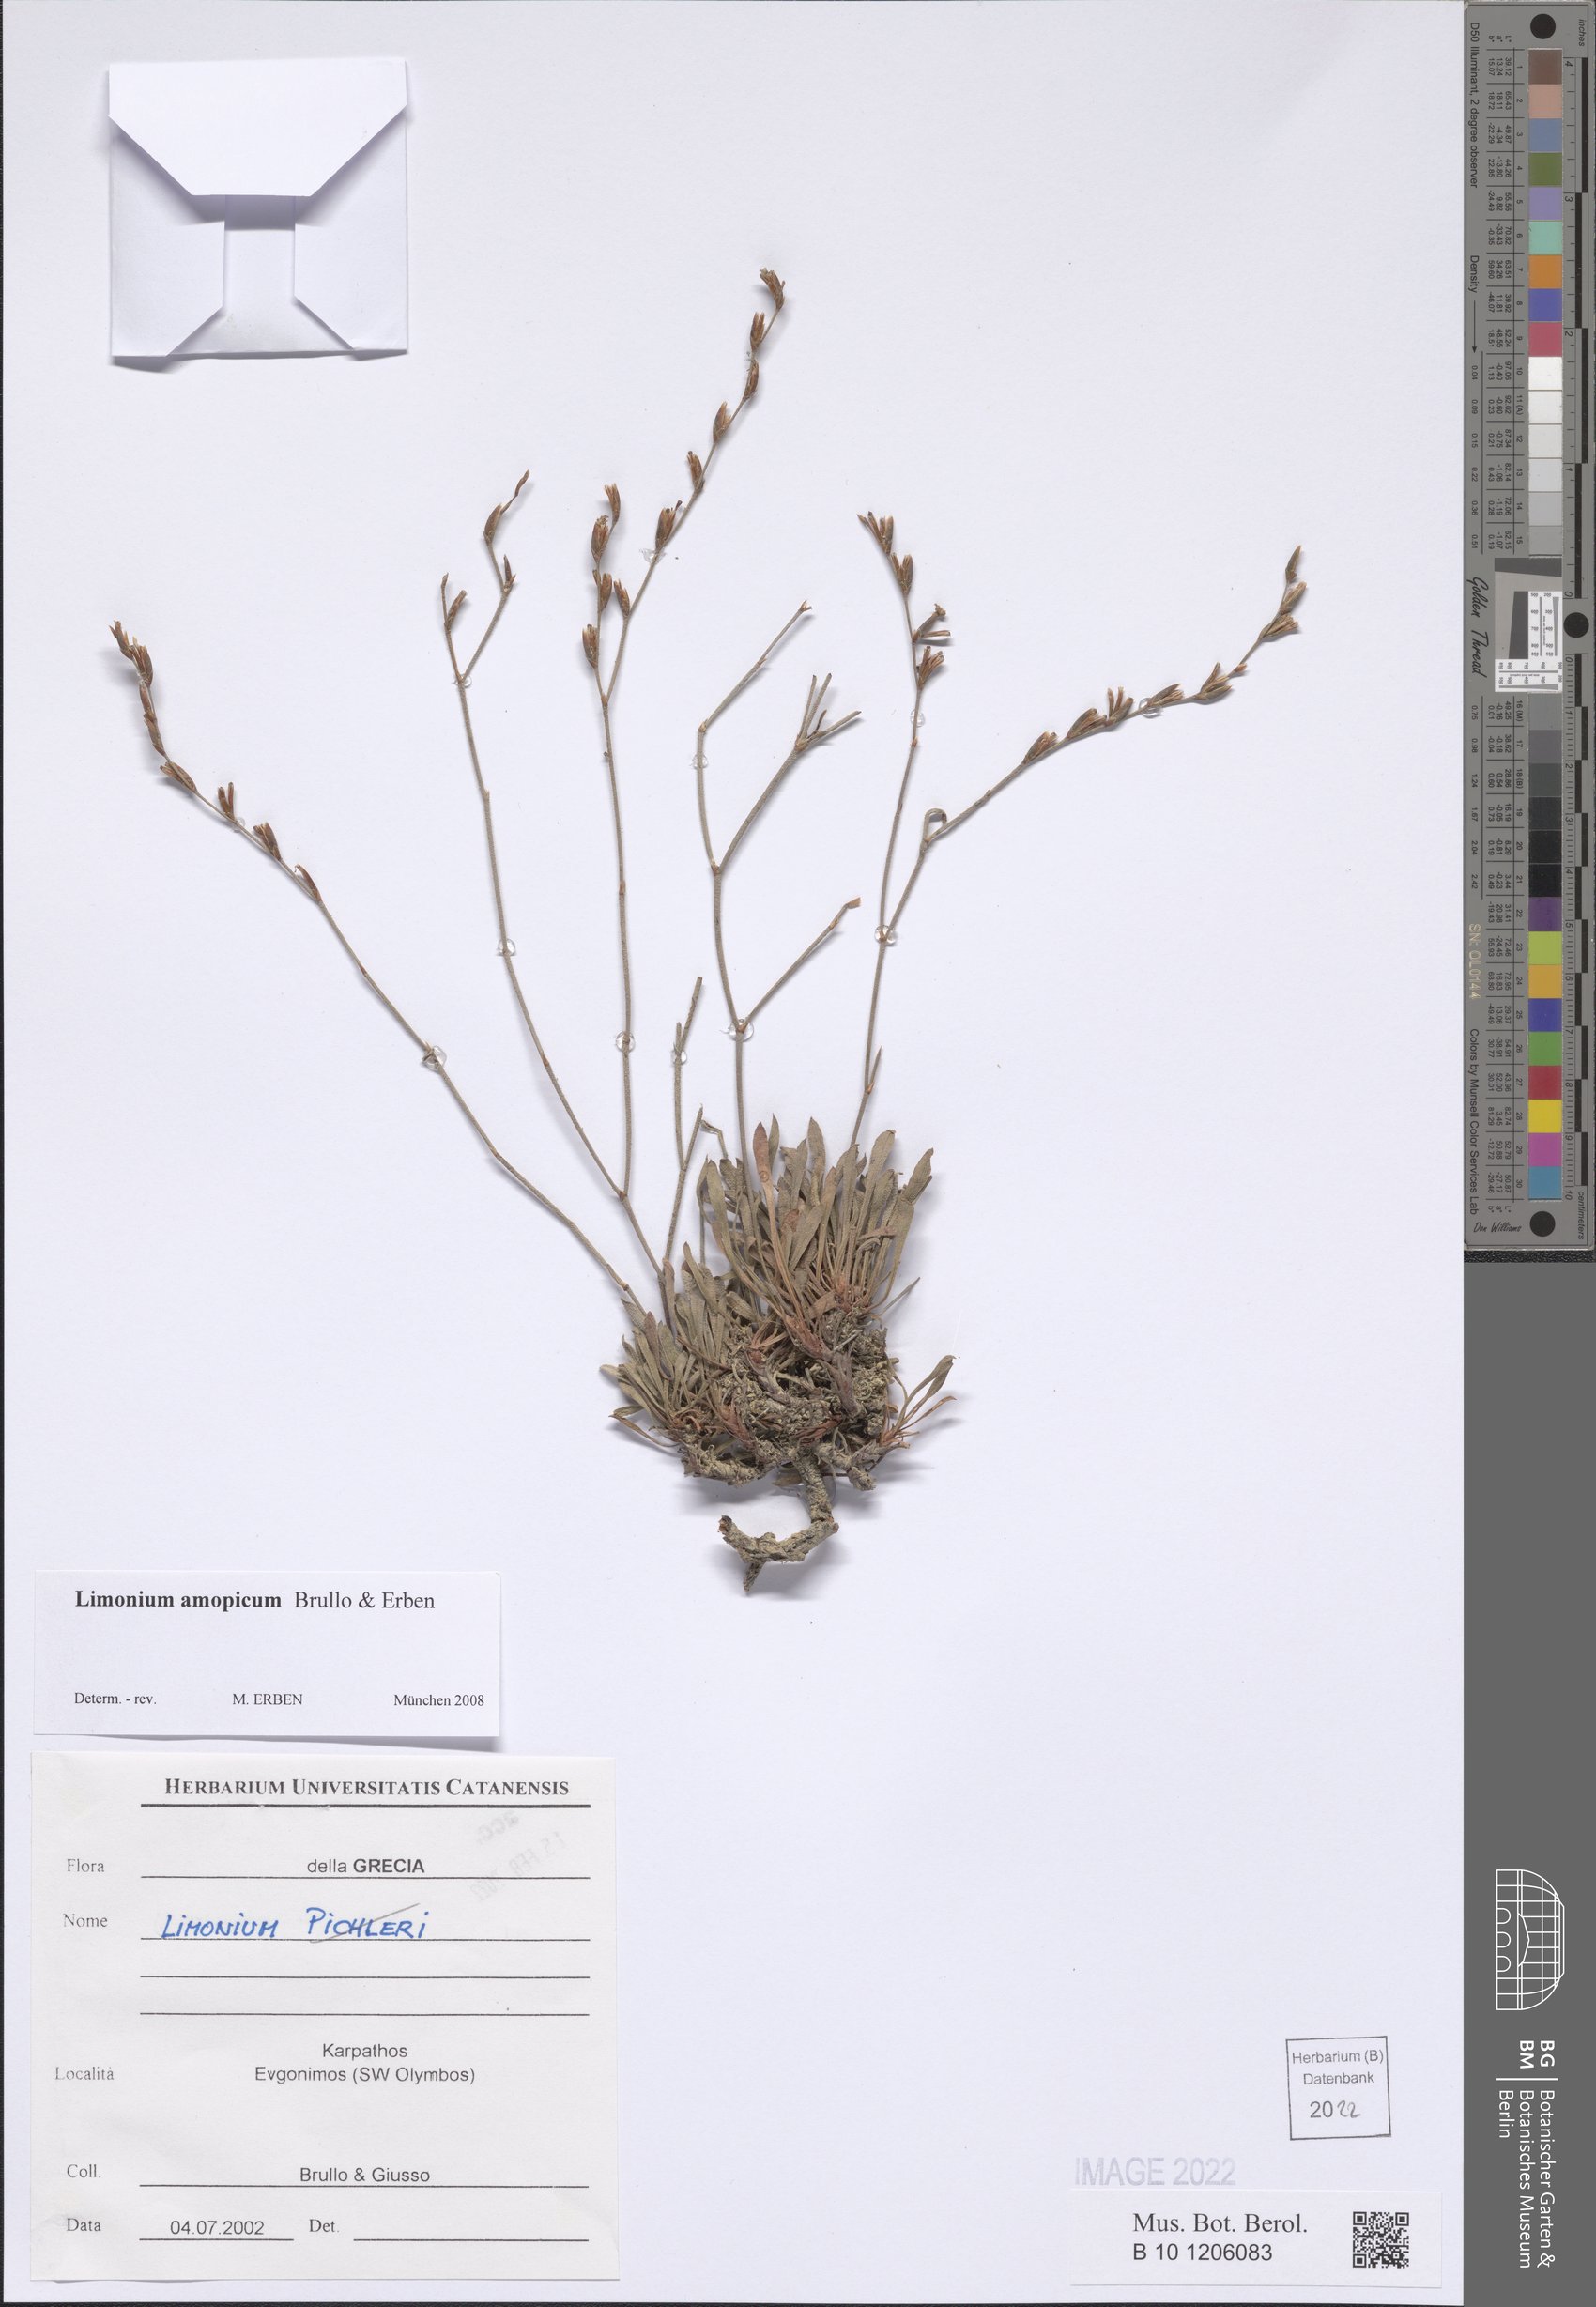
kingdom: Plantae
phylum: Tracheophyta
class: Magnoliopsida
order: Caryophyllales
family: Plumbaginaceae
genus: Limonium
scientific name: Limonium amopicum
